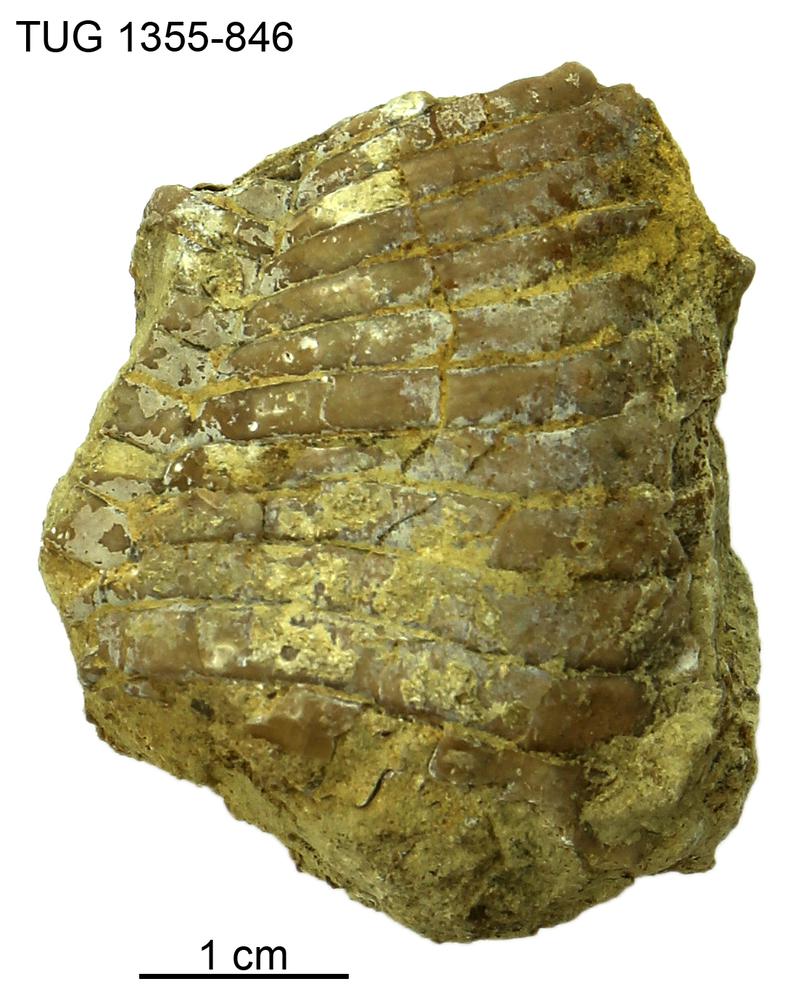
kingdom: Animalia
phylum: Arthropoda
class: Trilobita
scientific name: Trilobita
